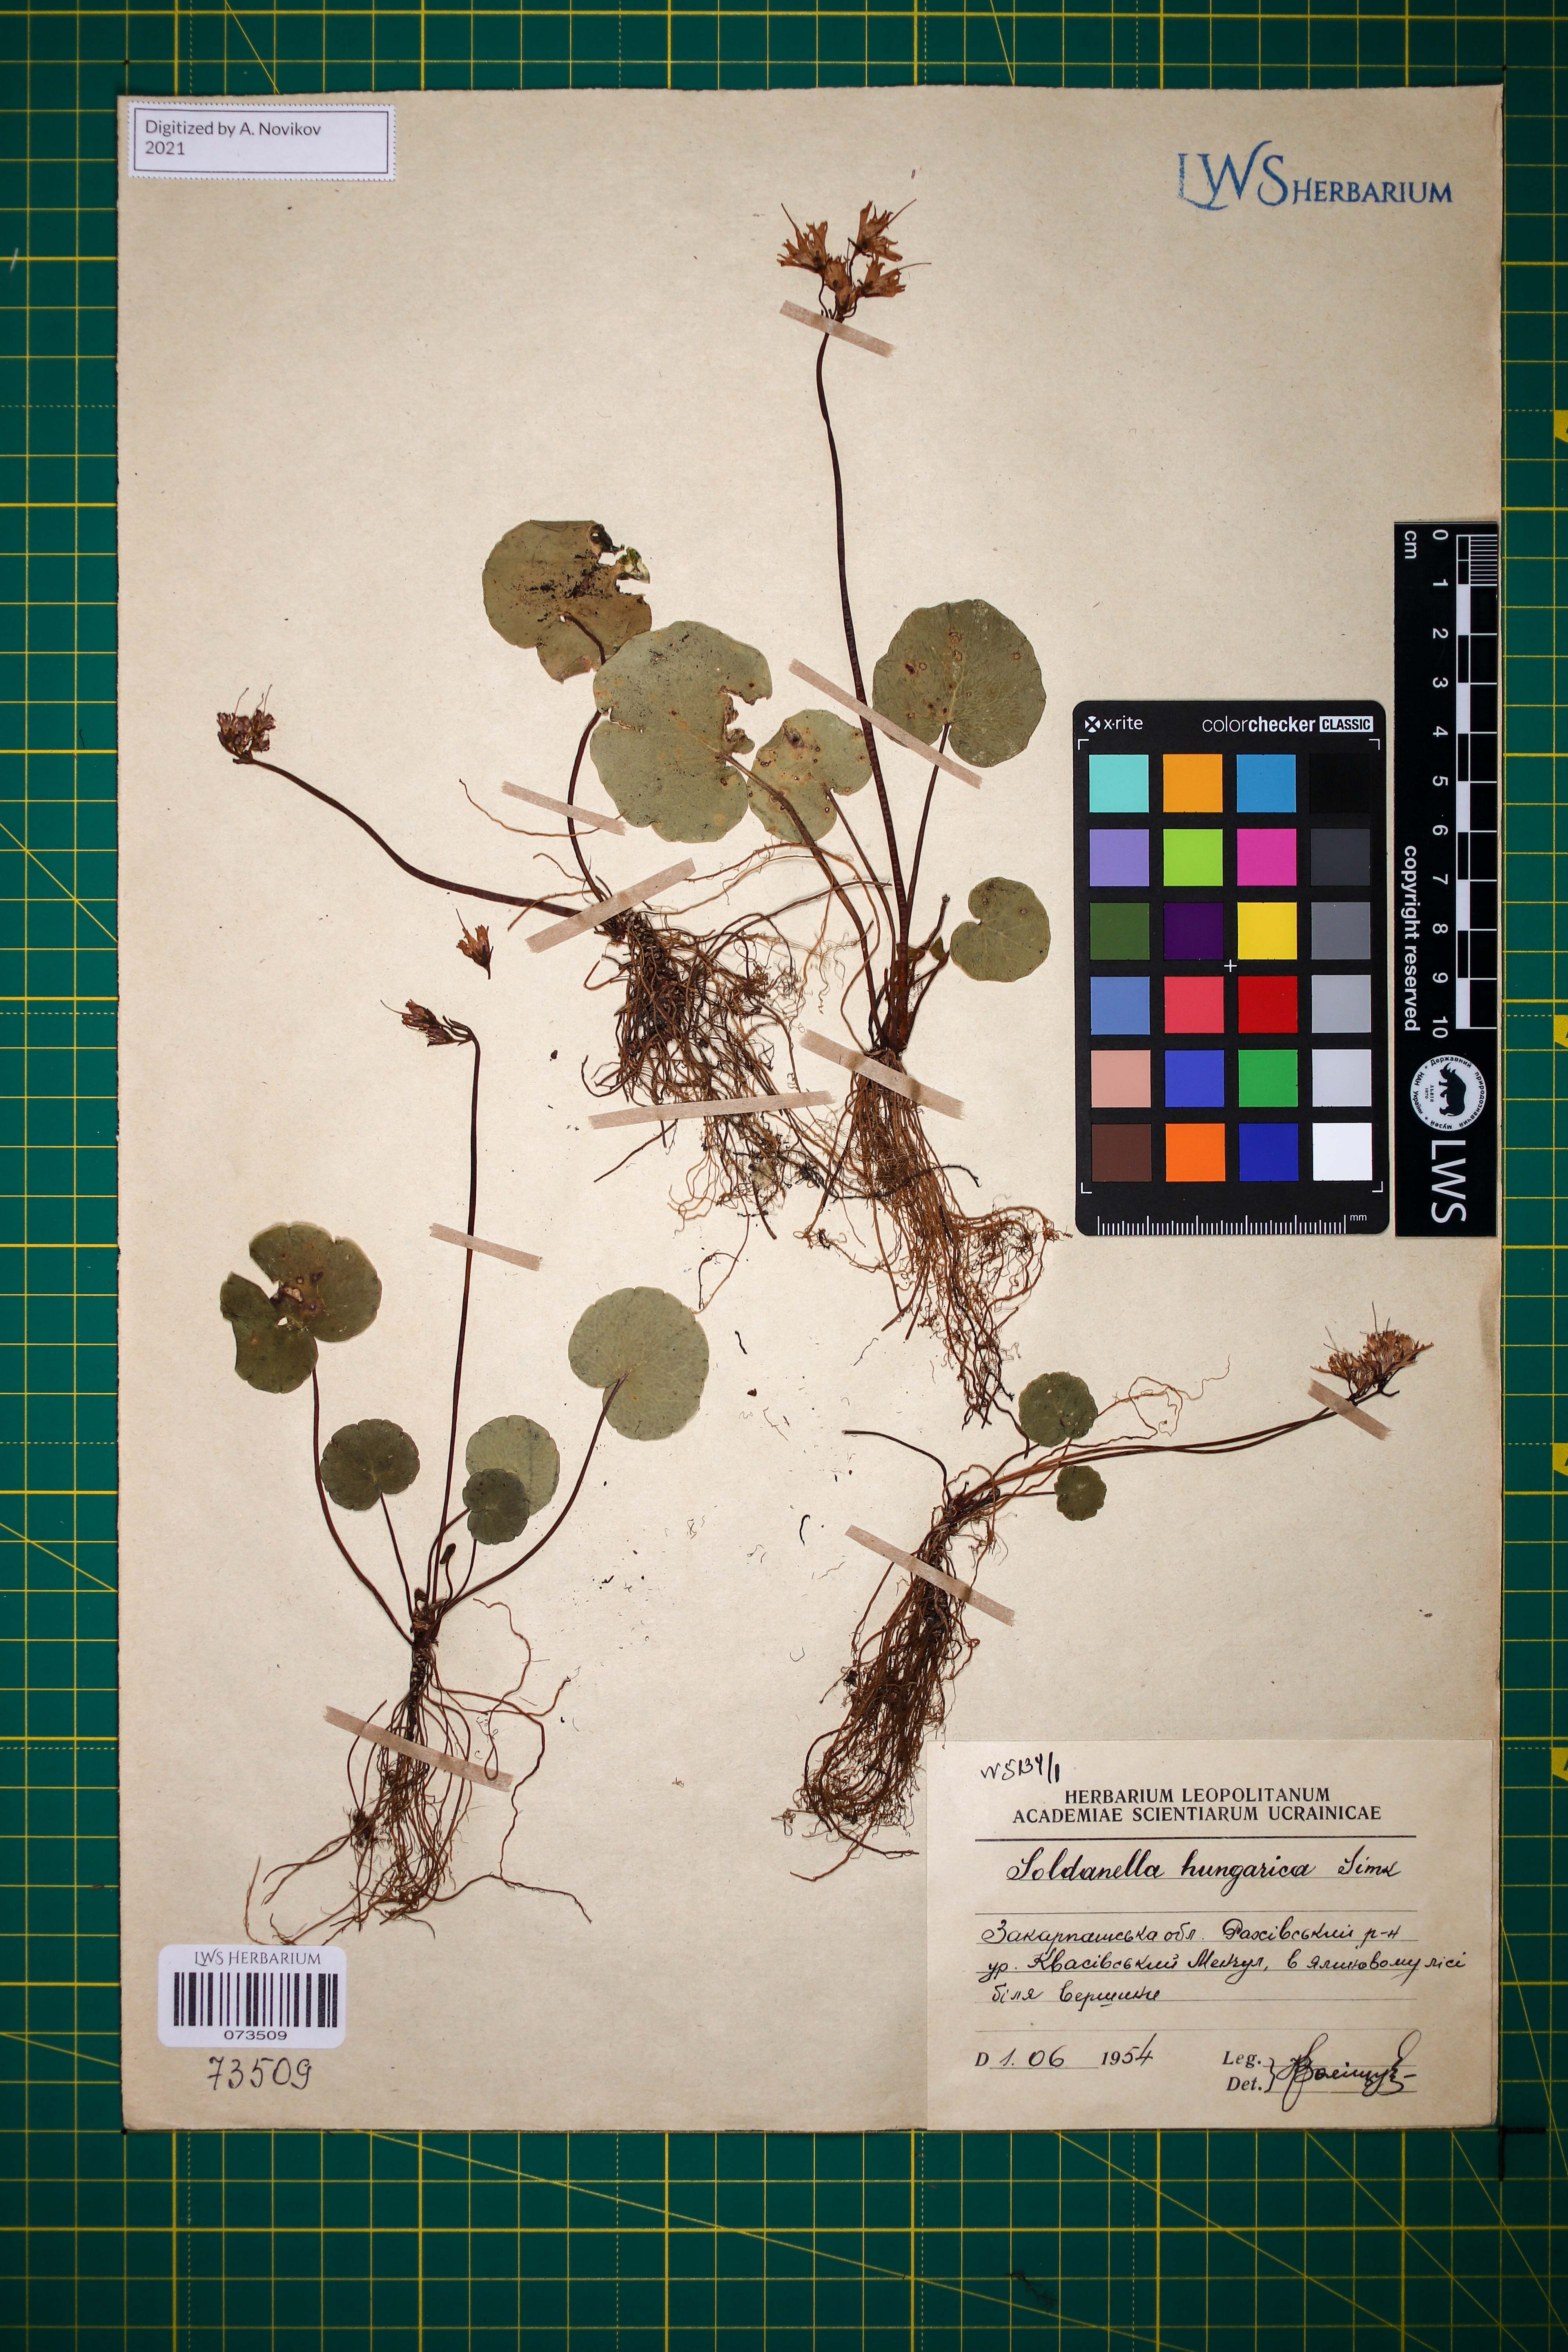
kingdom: Plantae
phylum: Tracheophyta
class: Magnoliopsida
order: Ericales
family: Primulaceae
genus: Soldanella
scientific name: Soldanella hungarica
